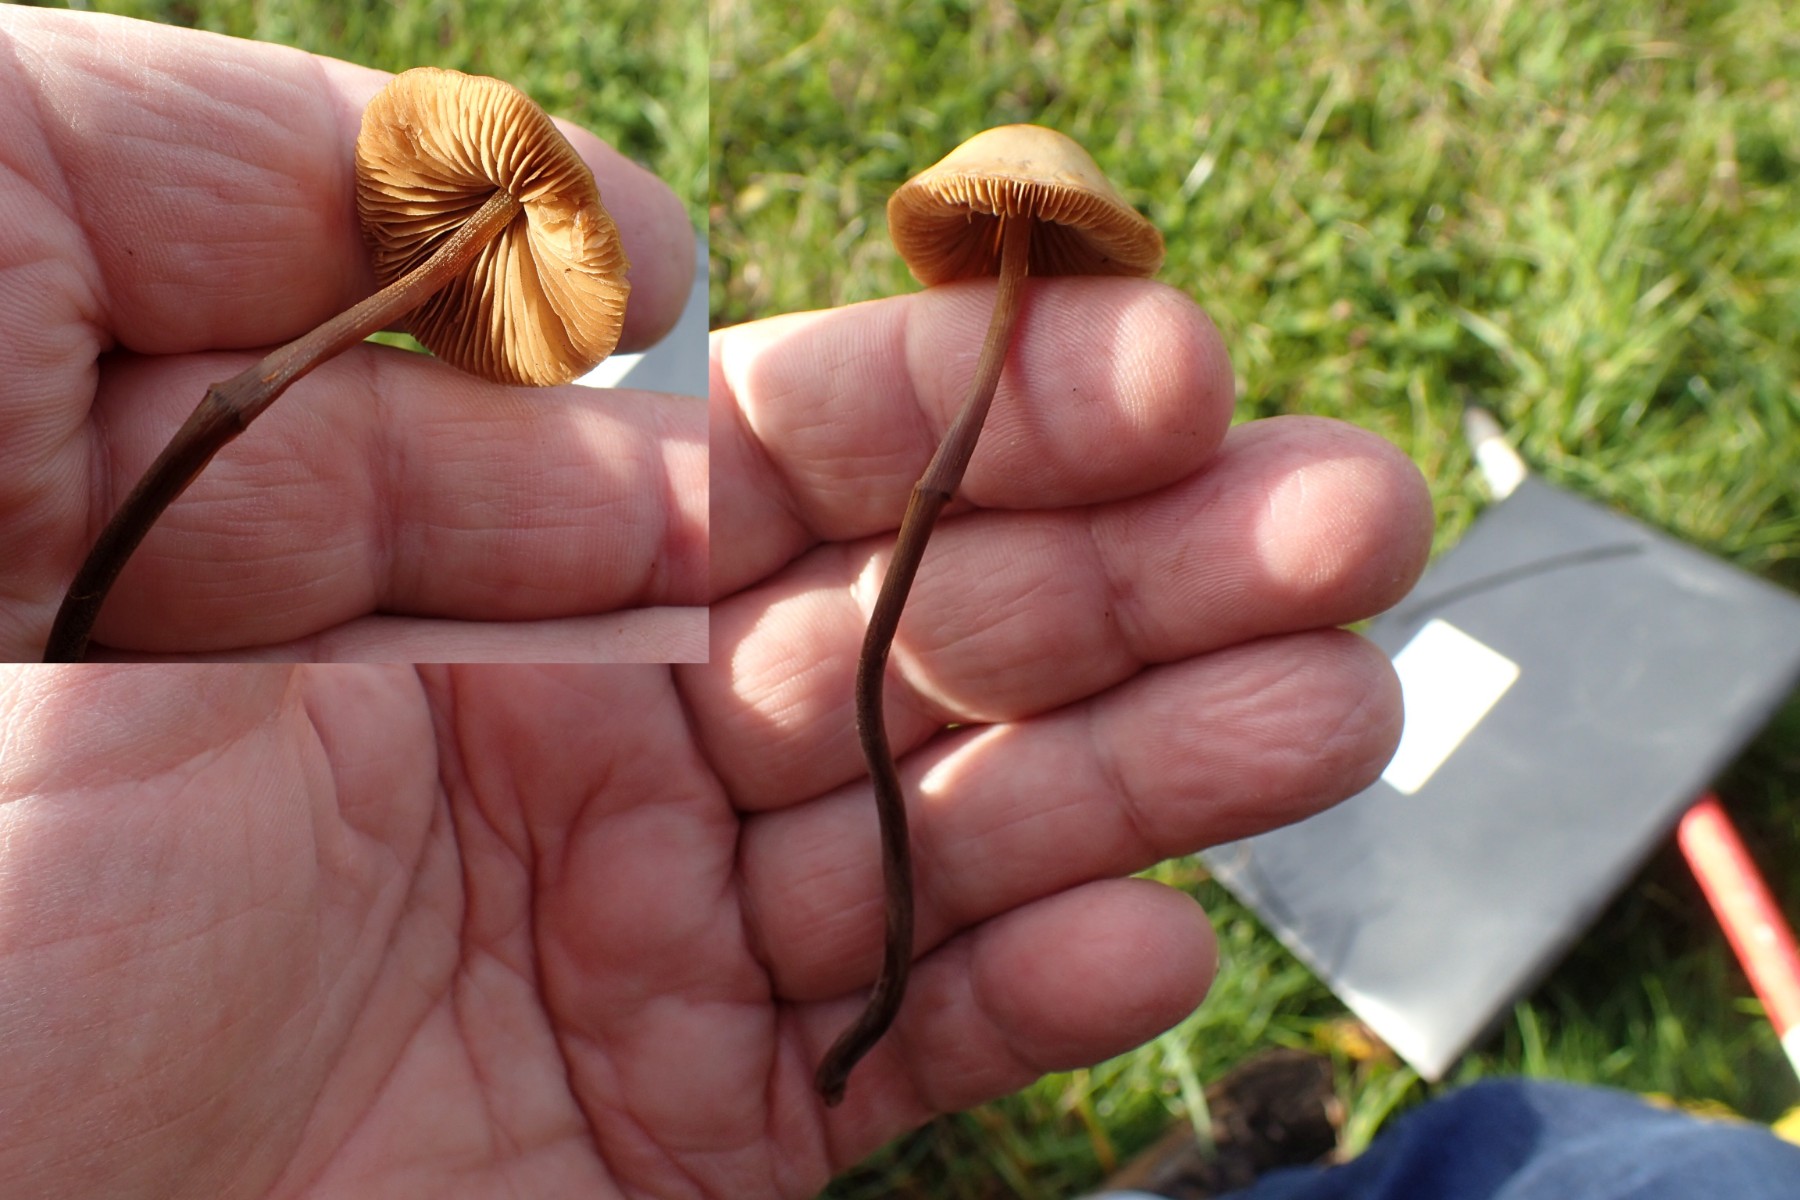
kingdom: Fungi
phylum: Basidiomycota
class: Agaricomycetes
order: Agaricales
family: Bolbitiaceae
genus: Conocybe
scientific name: Conocybe
